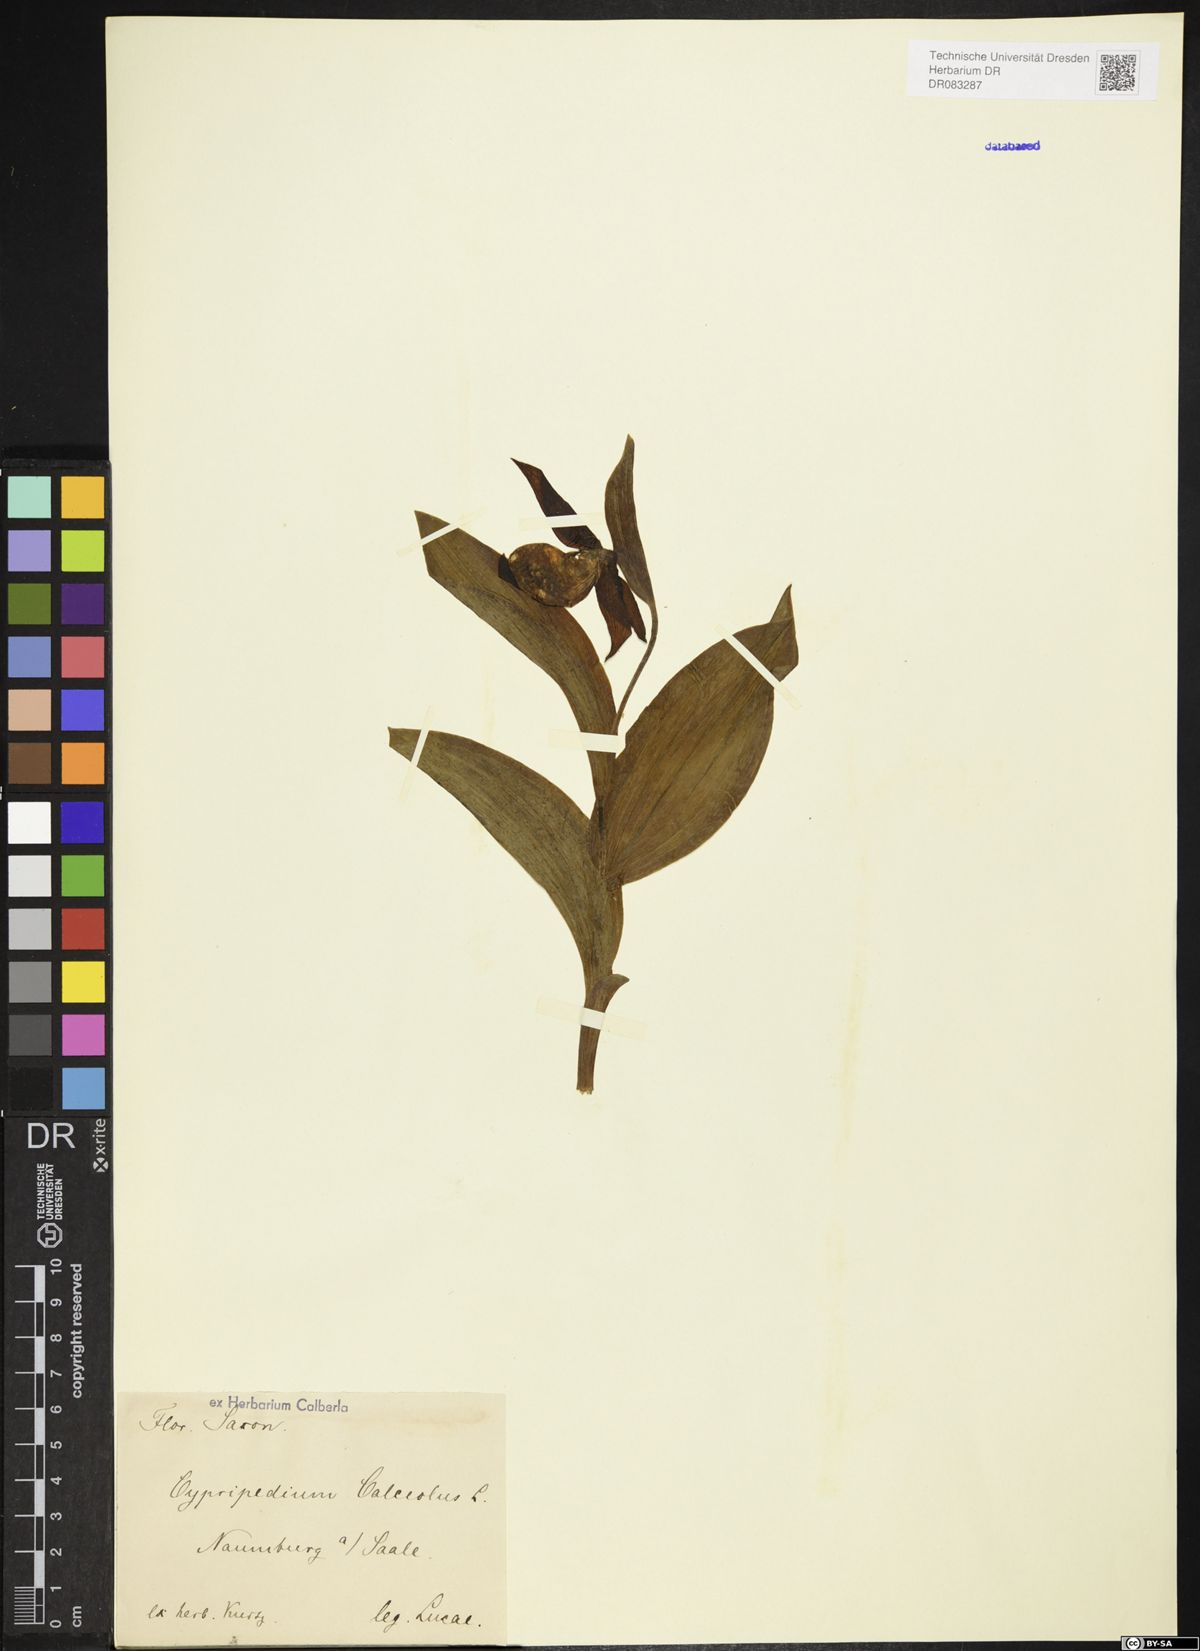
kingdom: Plantae
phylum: Tracheophyta
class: Liliopsida
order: Asparagales
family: Orchidaceae
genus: Cypripedium
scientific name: Cypripedium calceolus
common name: Lady's-slipper
